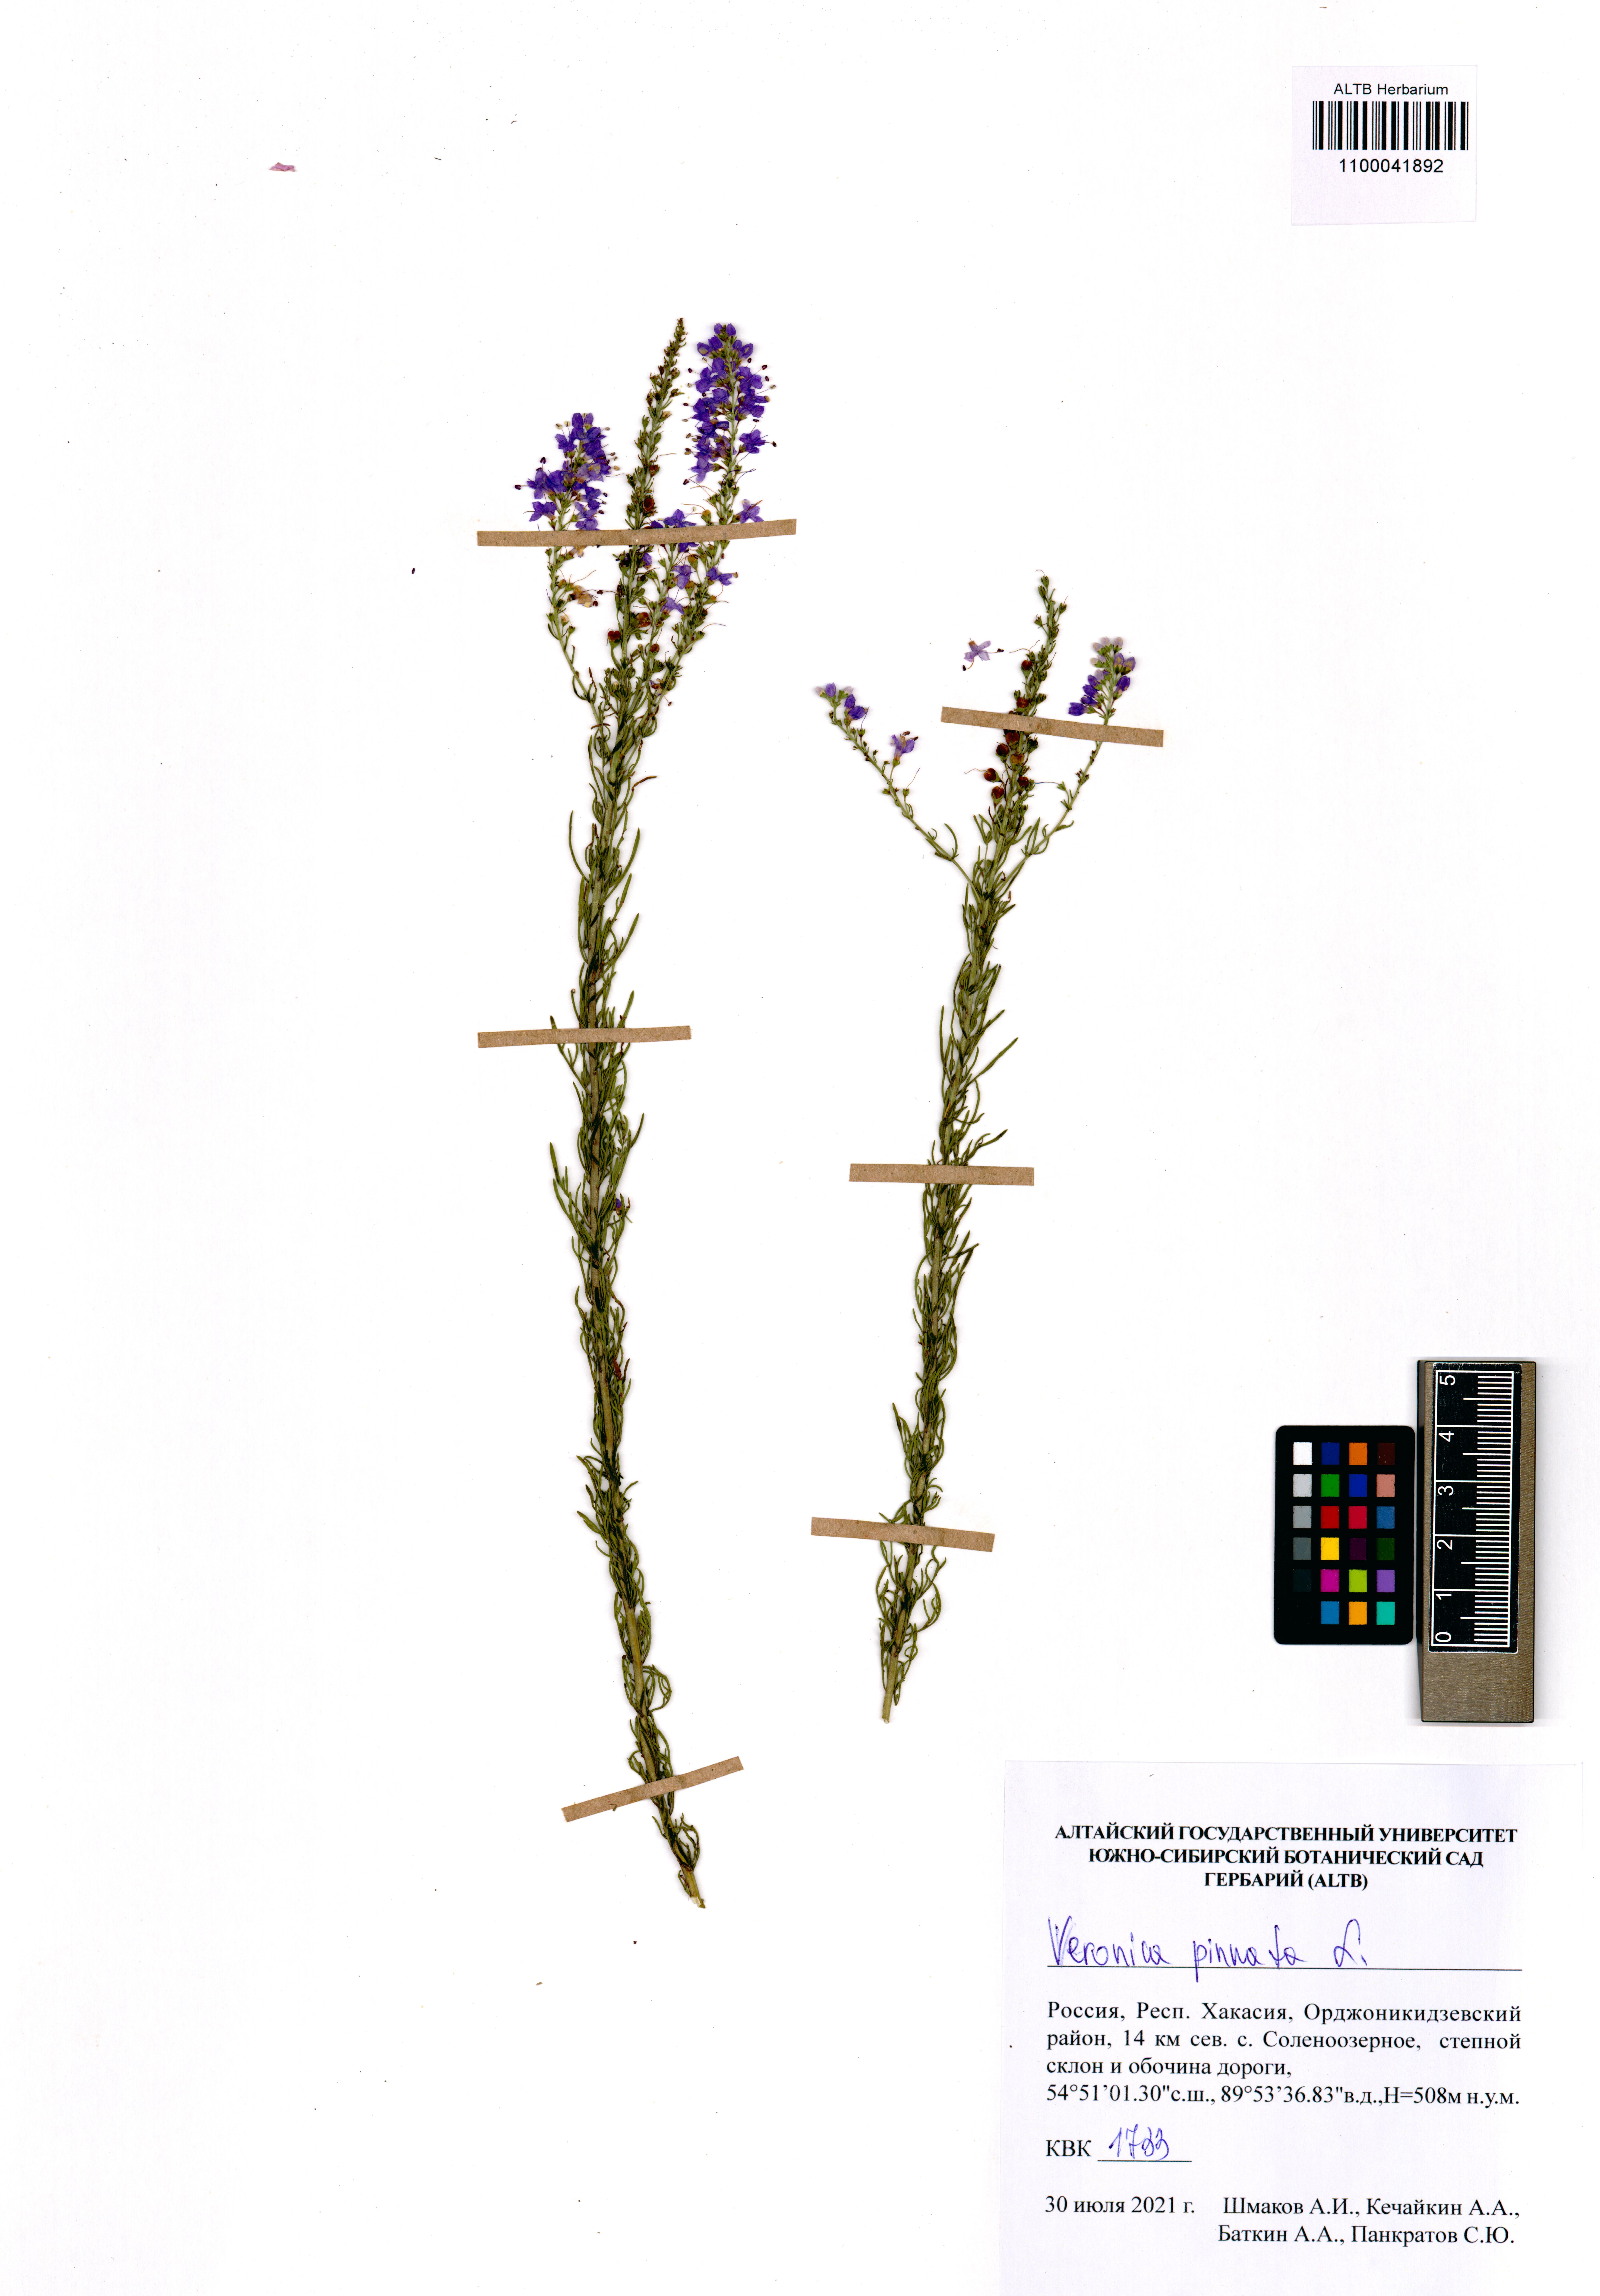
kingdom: Plantae
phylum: Tracheophyta
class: Magnoliopsida
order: Lamiales
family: Plantaginaceae
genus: Veronica
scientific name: Veronica pinnata
